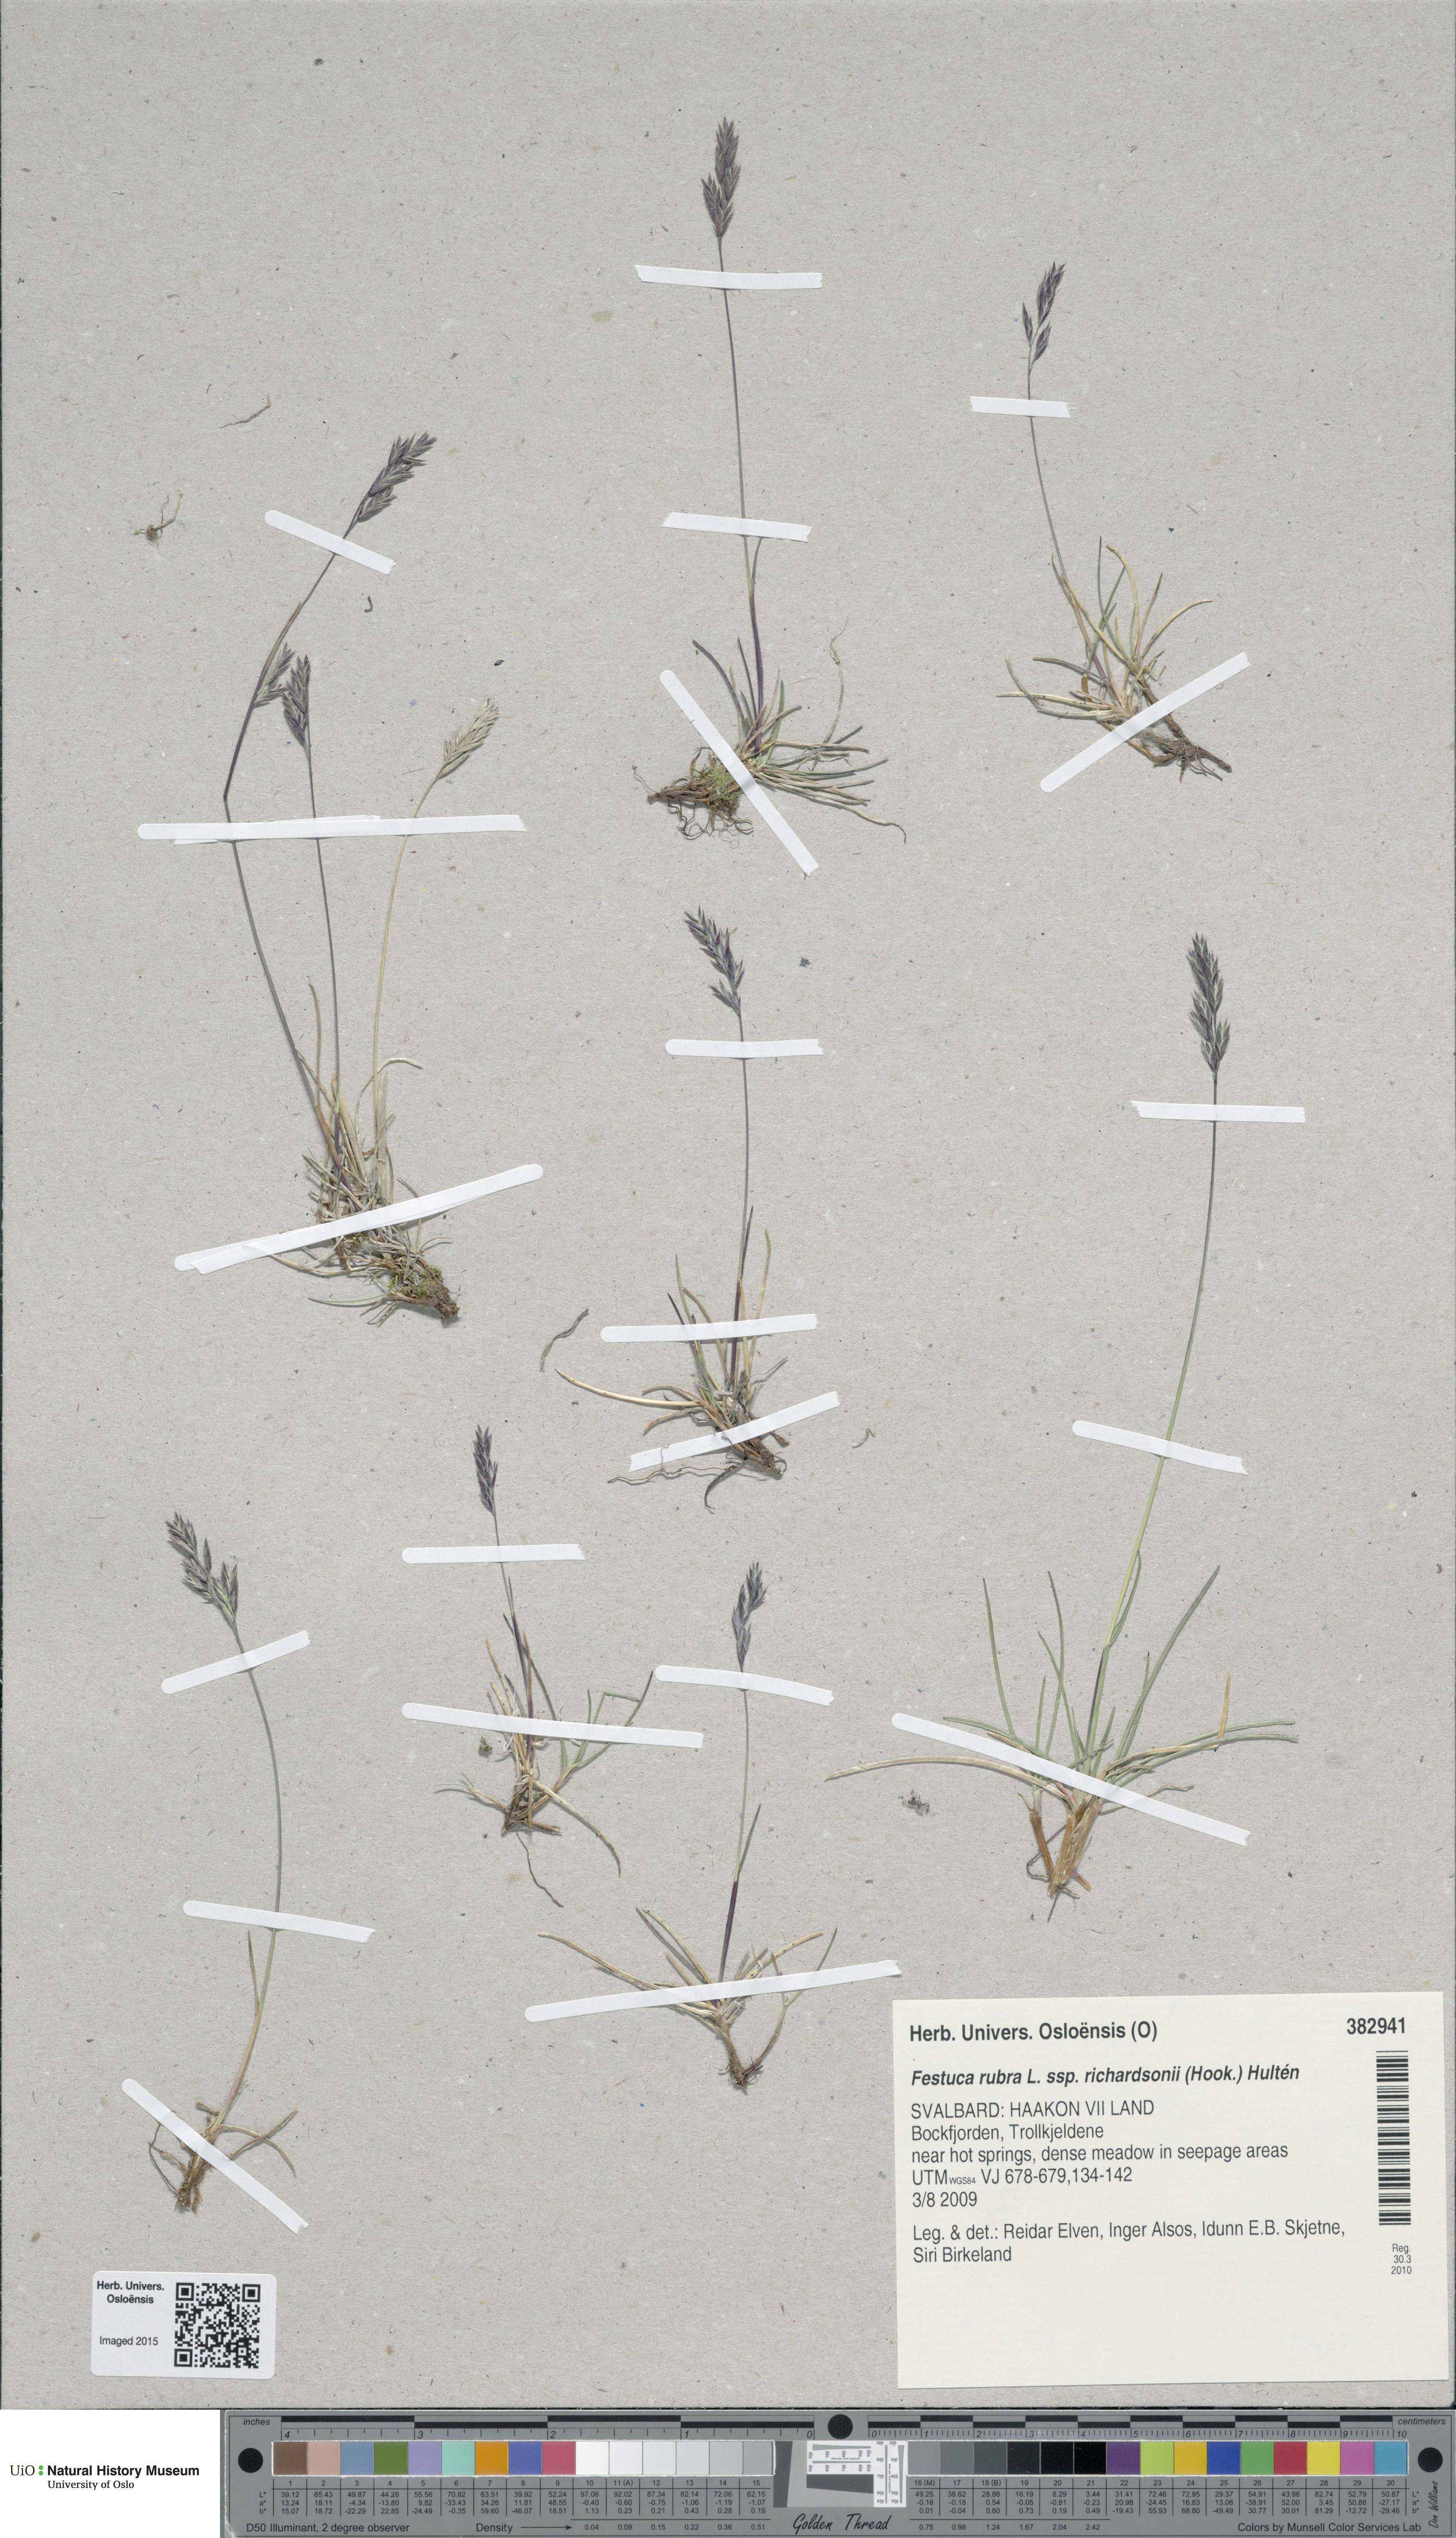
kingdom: Plantae
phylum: Tracheophyta
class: Liliopsida
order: Poales
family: Poaceae
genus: Festuca
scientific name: Festuca richardsonii
